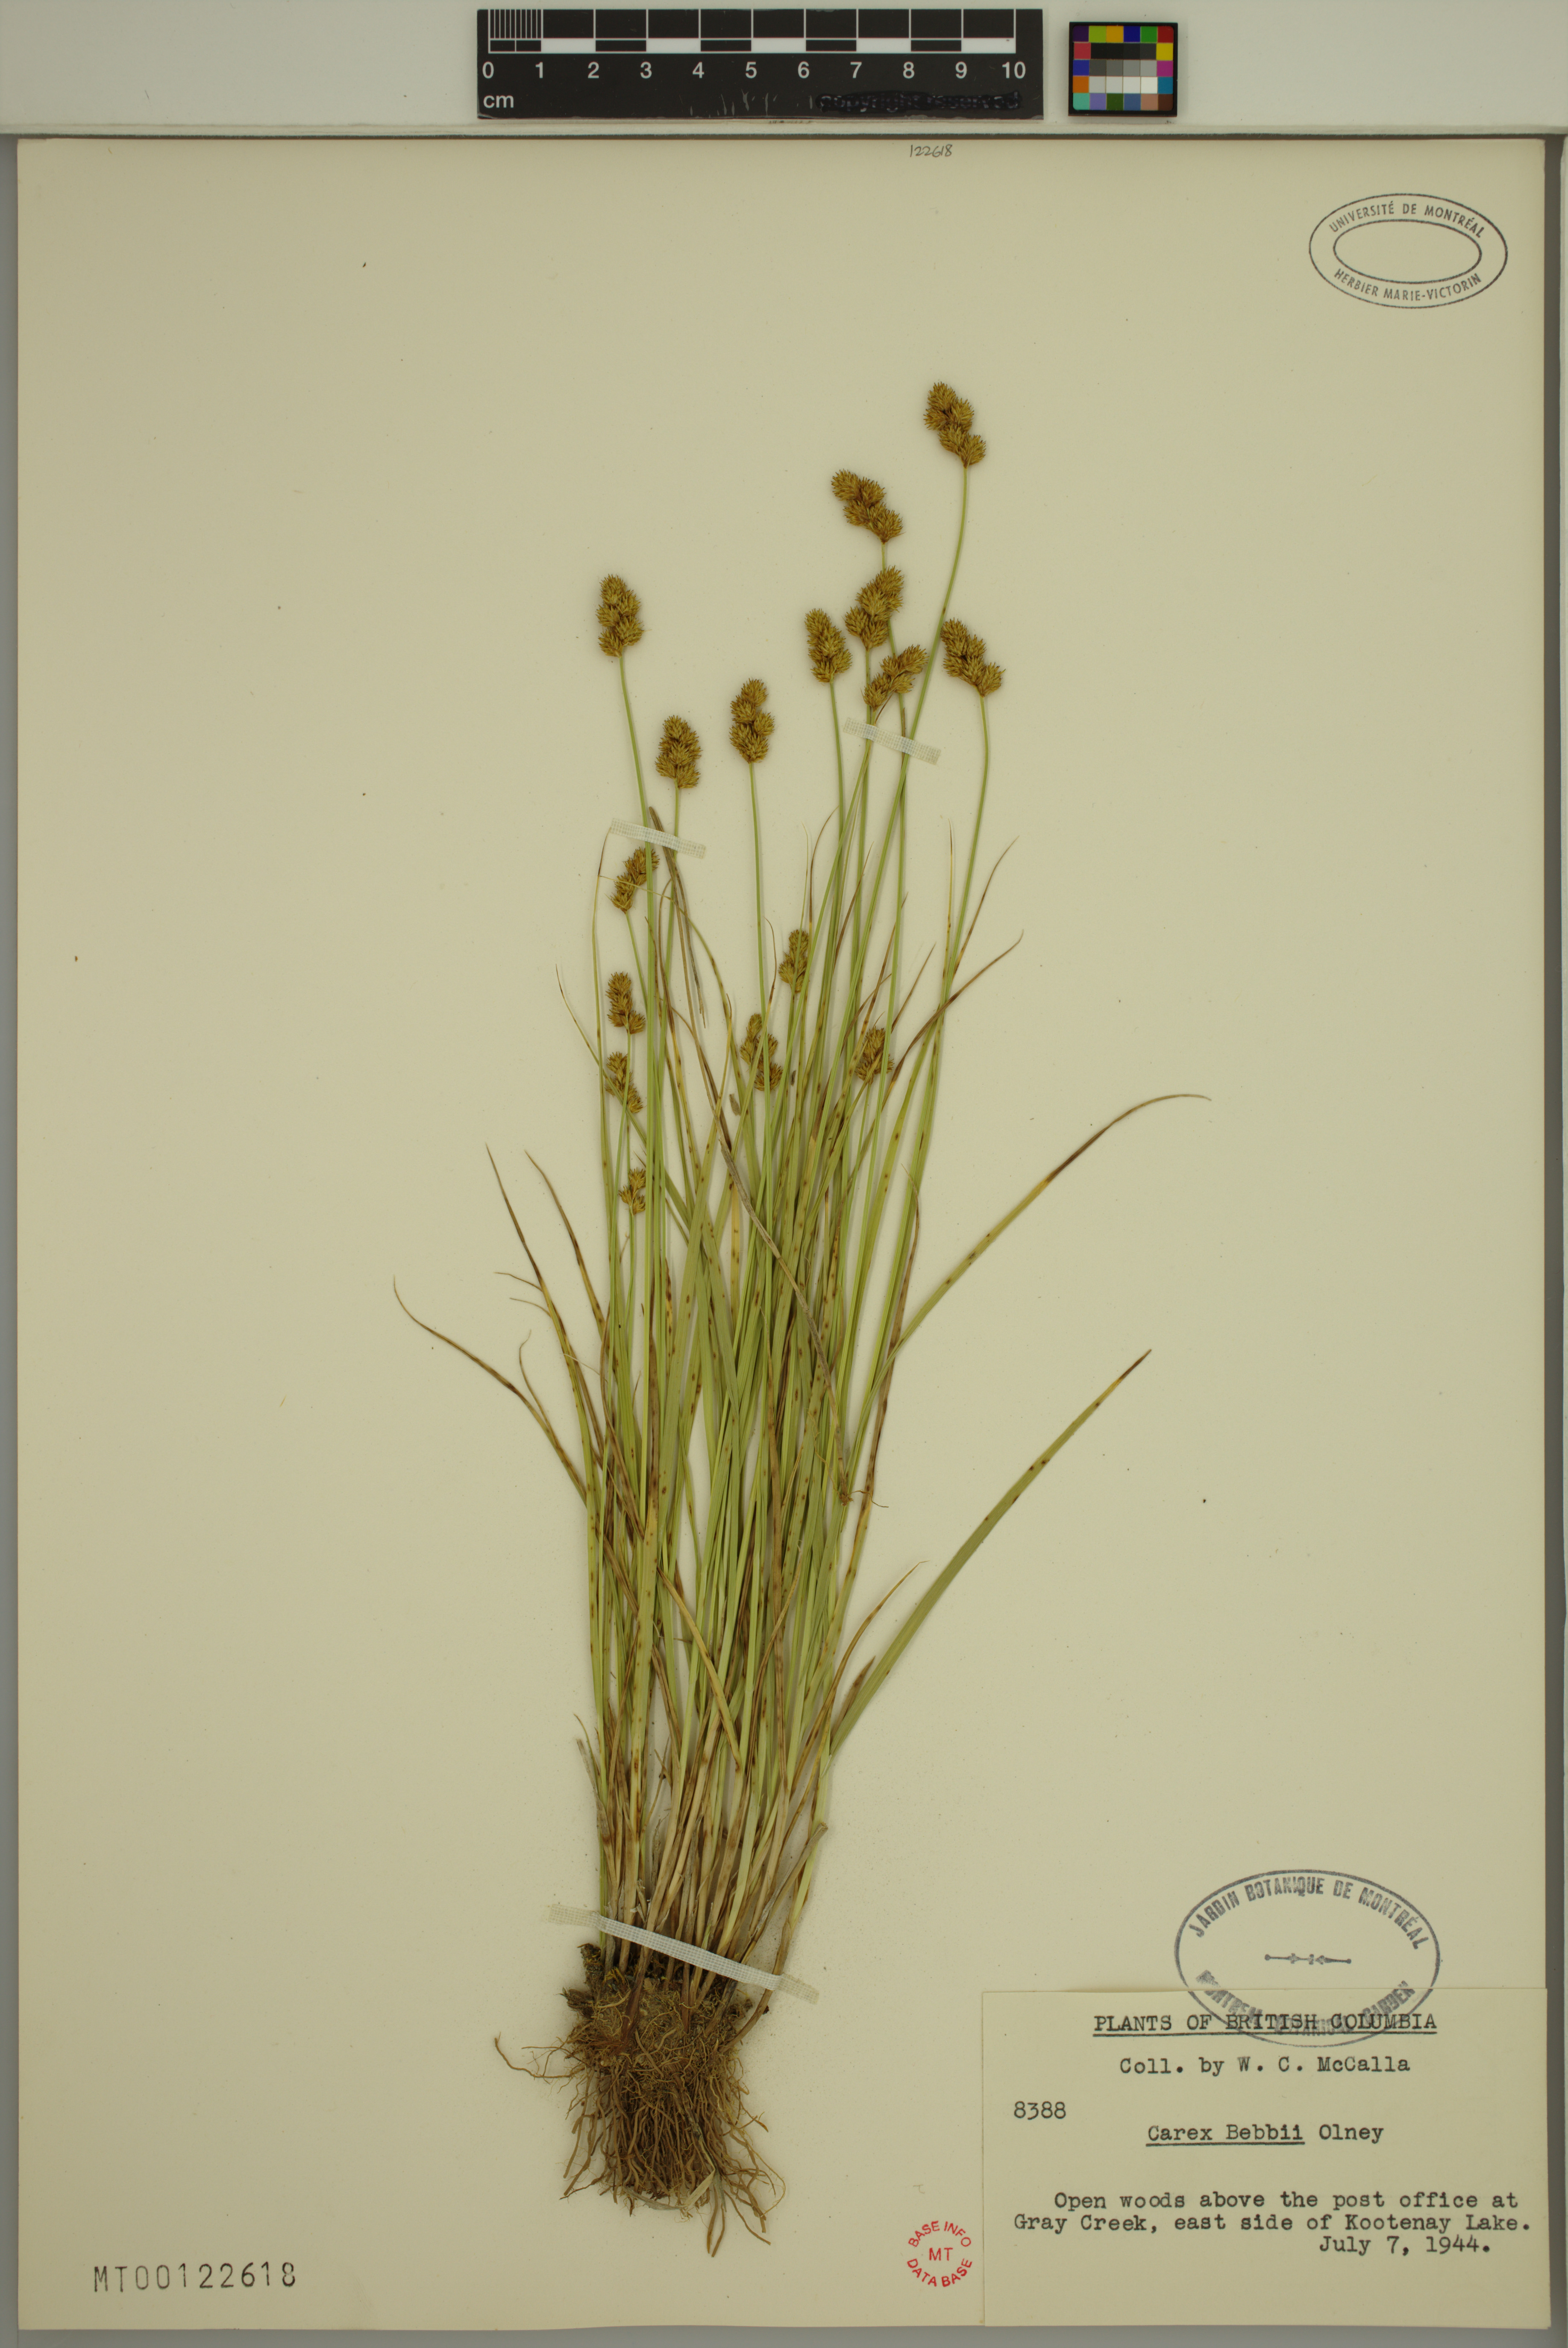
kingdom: Plantae
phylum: Tracheophyta
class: Liliopsida
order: Poales
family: Cyperaceae
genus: Carex
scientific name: Carex bebbii
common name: Bebb's sedge
